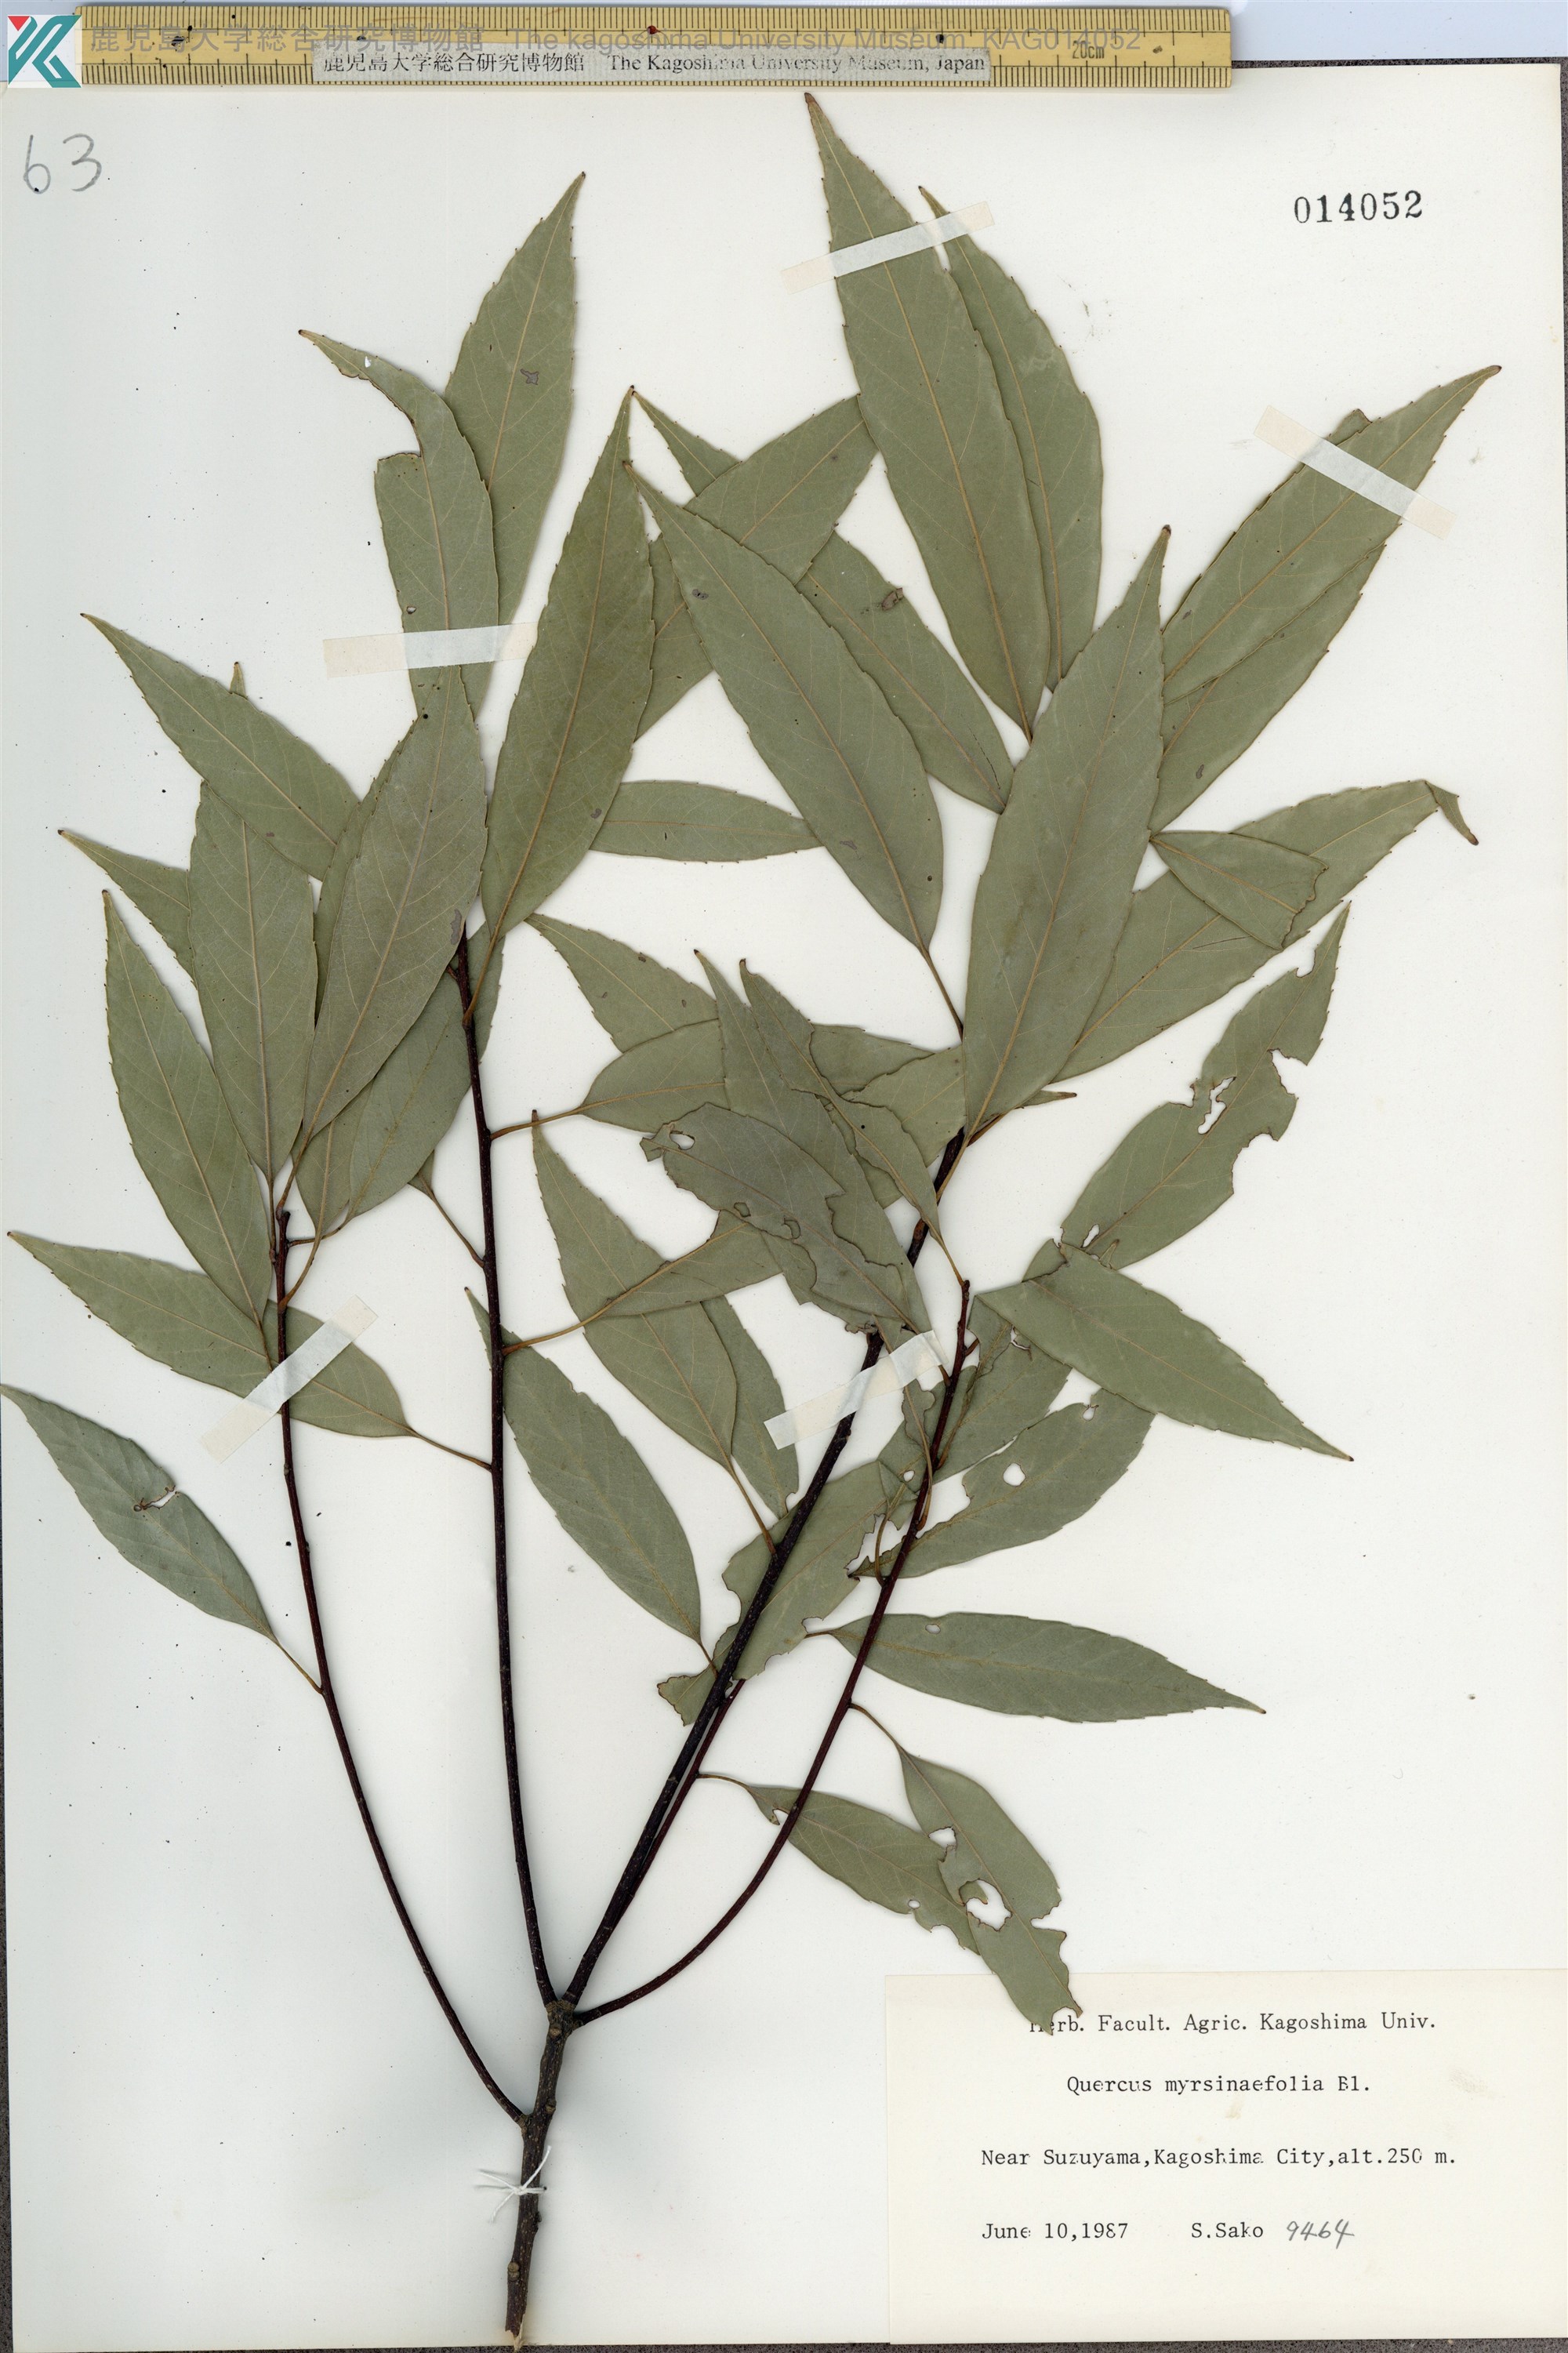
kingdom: Plantae
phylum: Tracheophyta
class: Magnoliopsida
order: Fagales
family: Fagaceae
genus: Quercus
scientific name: Quercus myrsinaefolia
